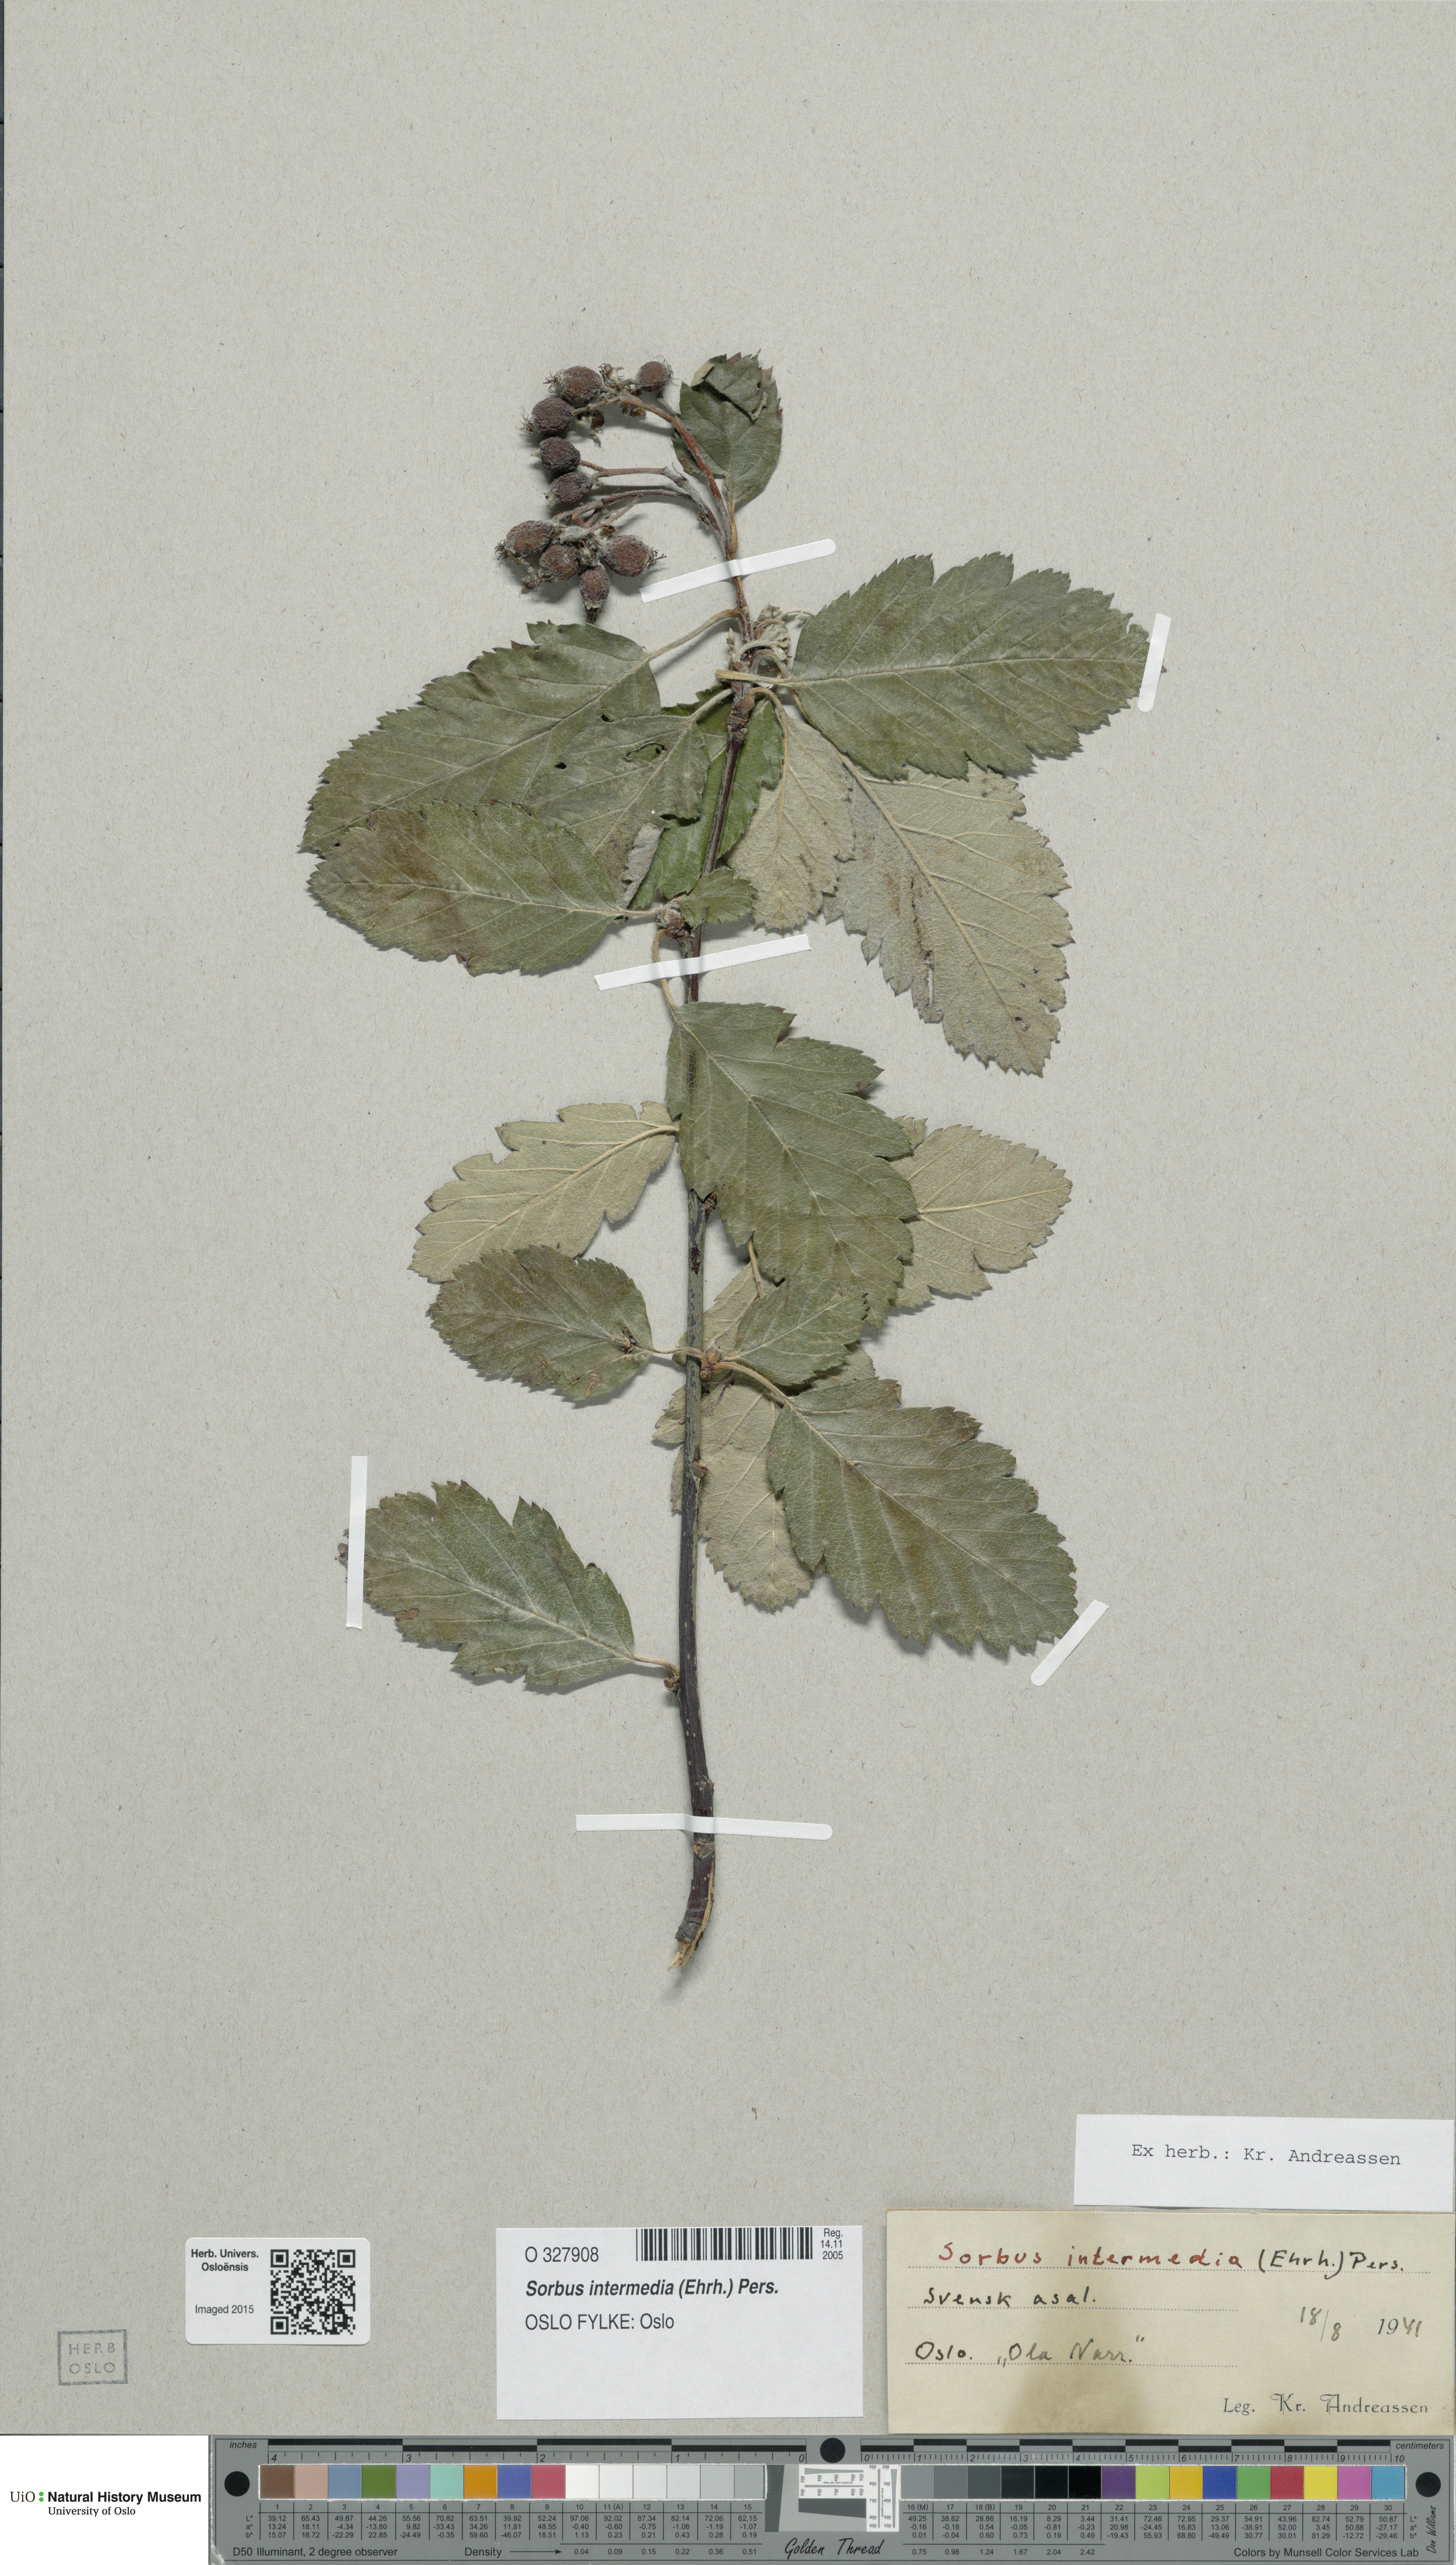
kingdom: Plantae
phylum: Tracheophyta
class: Magnoliopsida
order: Rosales
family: Rosaceae
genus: Scandosorbus
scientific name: Scandosorbus intermedia
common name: Swedish whitebeam
